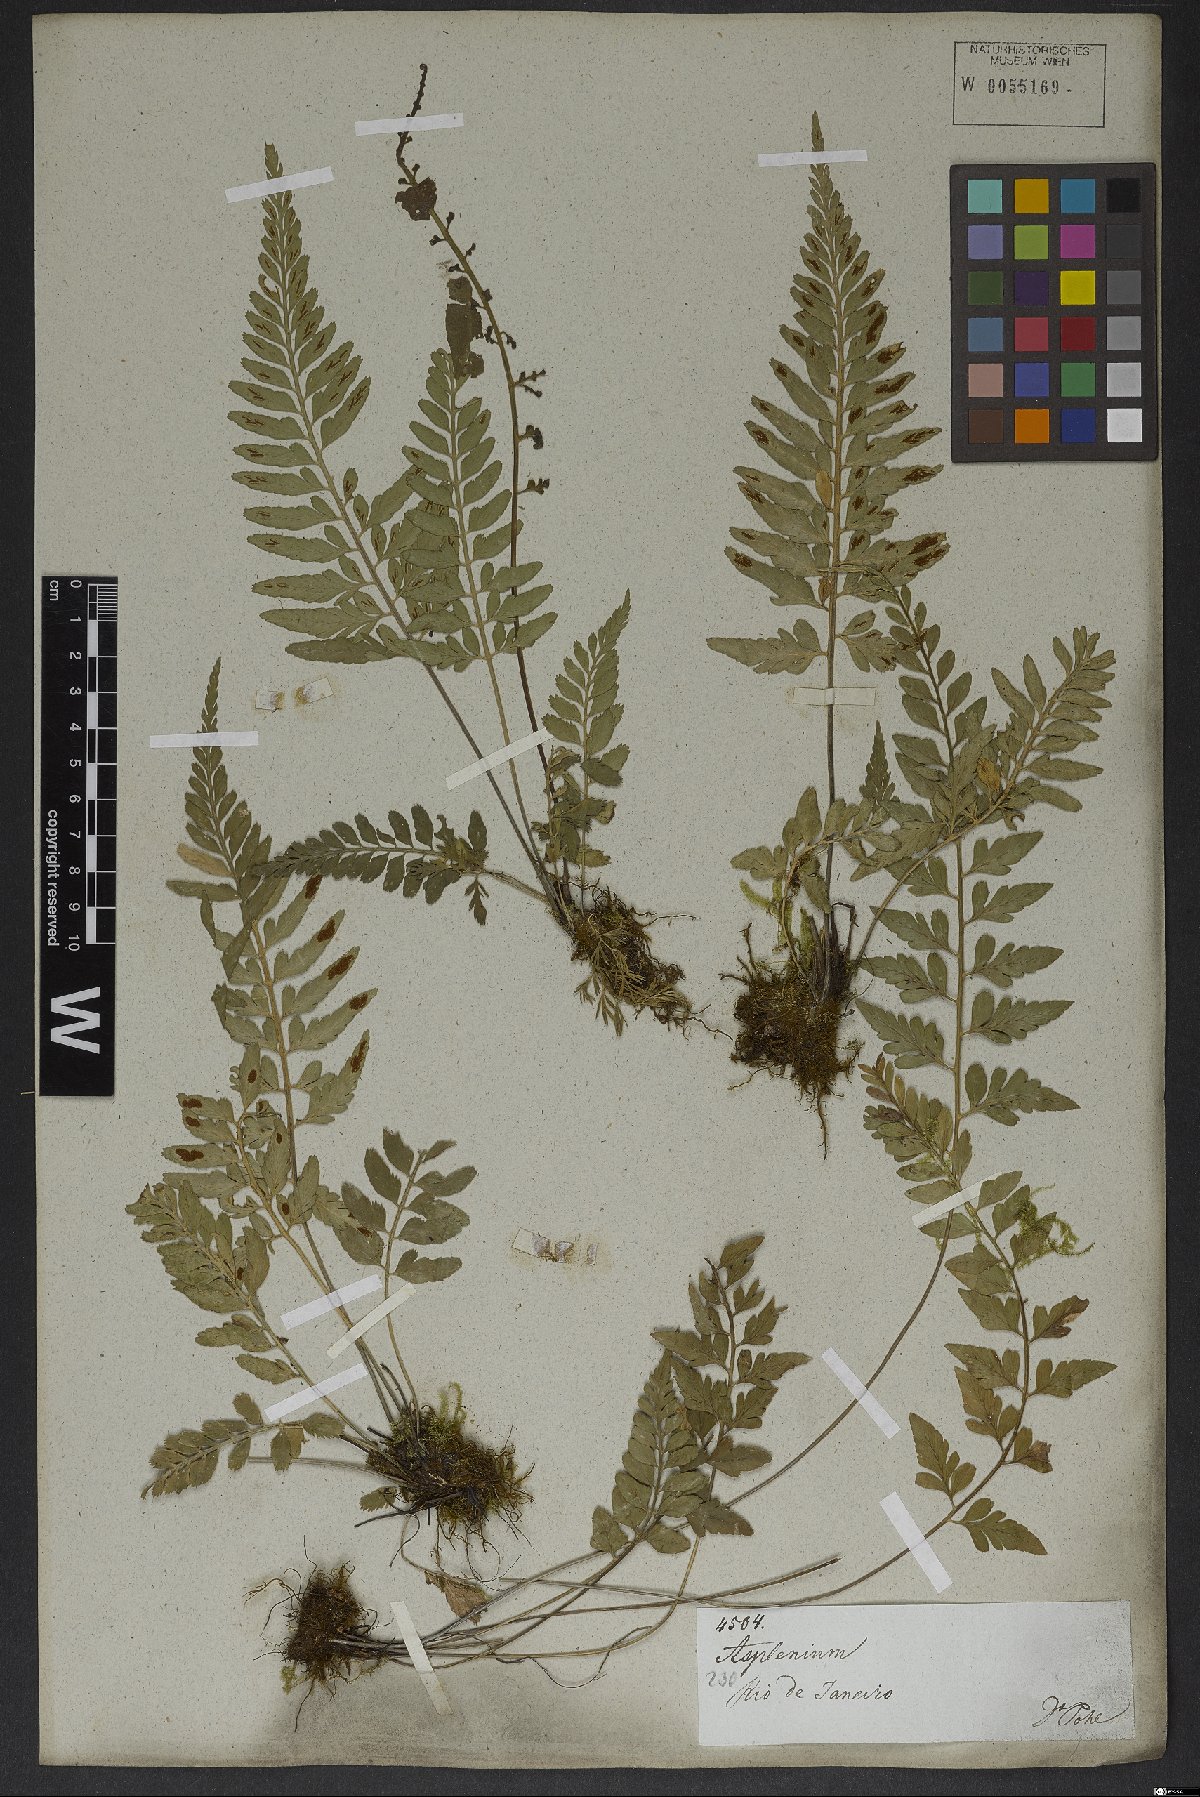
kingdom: Plantae
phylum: Tracheophyta
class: Polypodiopsida
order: Polypodiales
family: Aspleniaceae
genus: Asplenium
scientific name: Asplenium sulcatum
